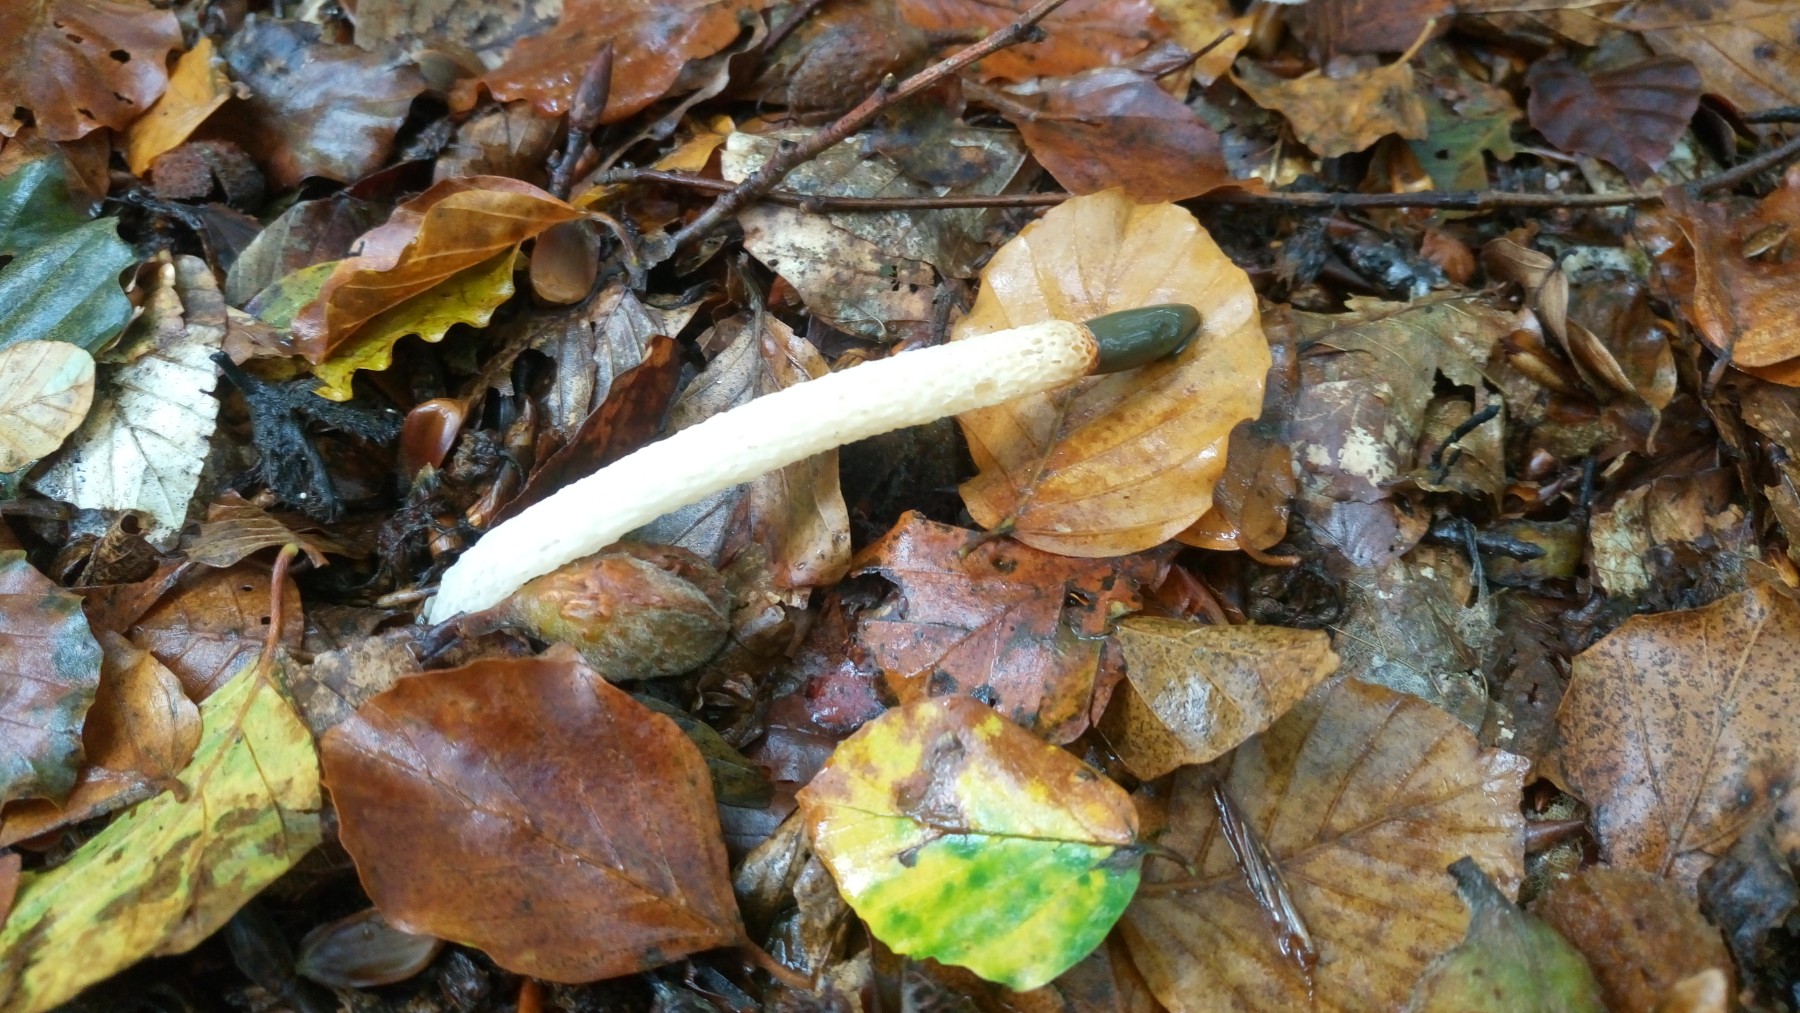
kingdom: Fungi
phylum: Basidiomycota
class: Agaricomycetes
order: Phallales
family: Phallaceae
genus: Mutinus
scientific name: Mutinus caninus
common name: hunde-stinksvamp
